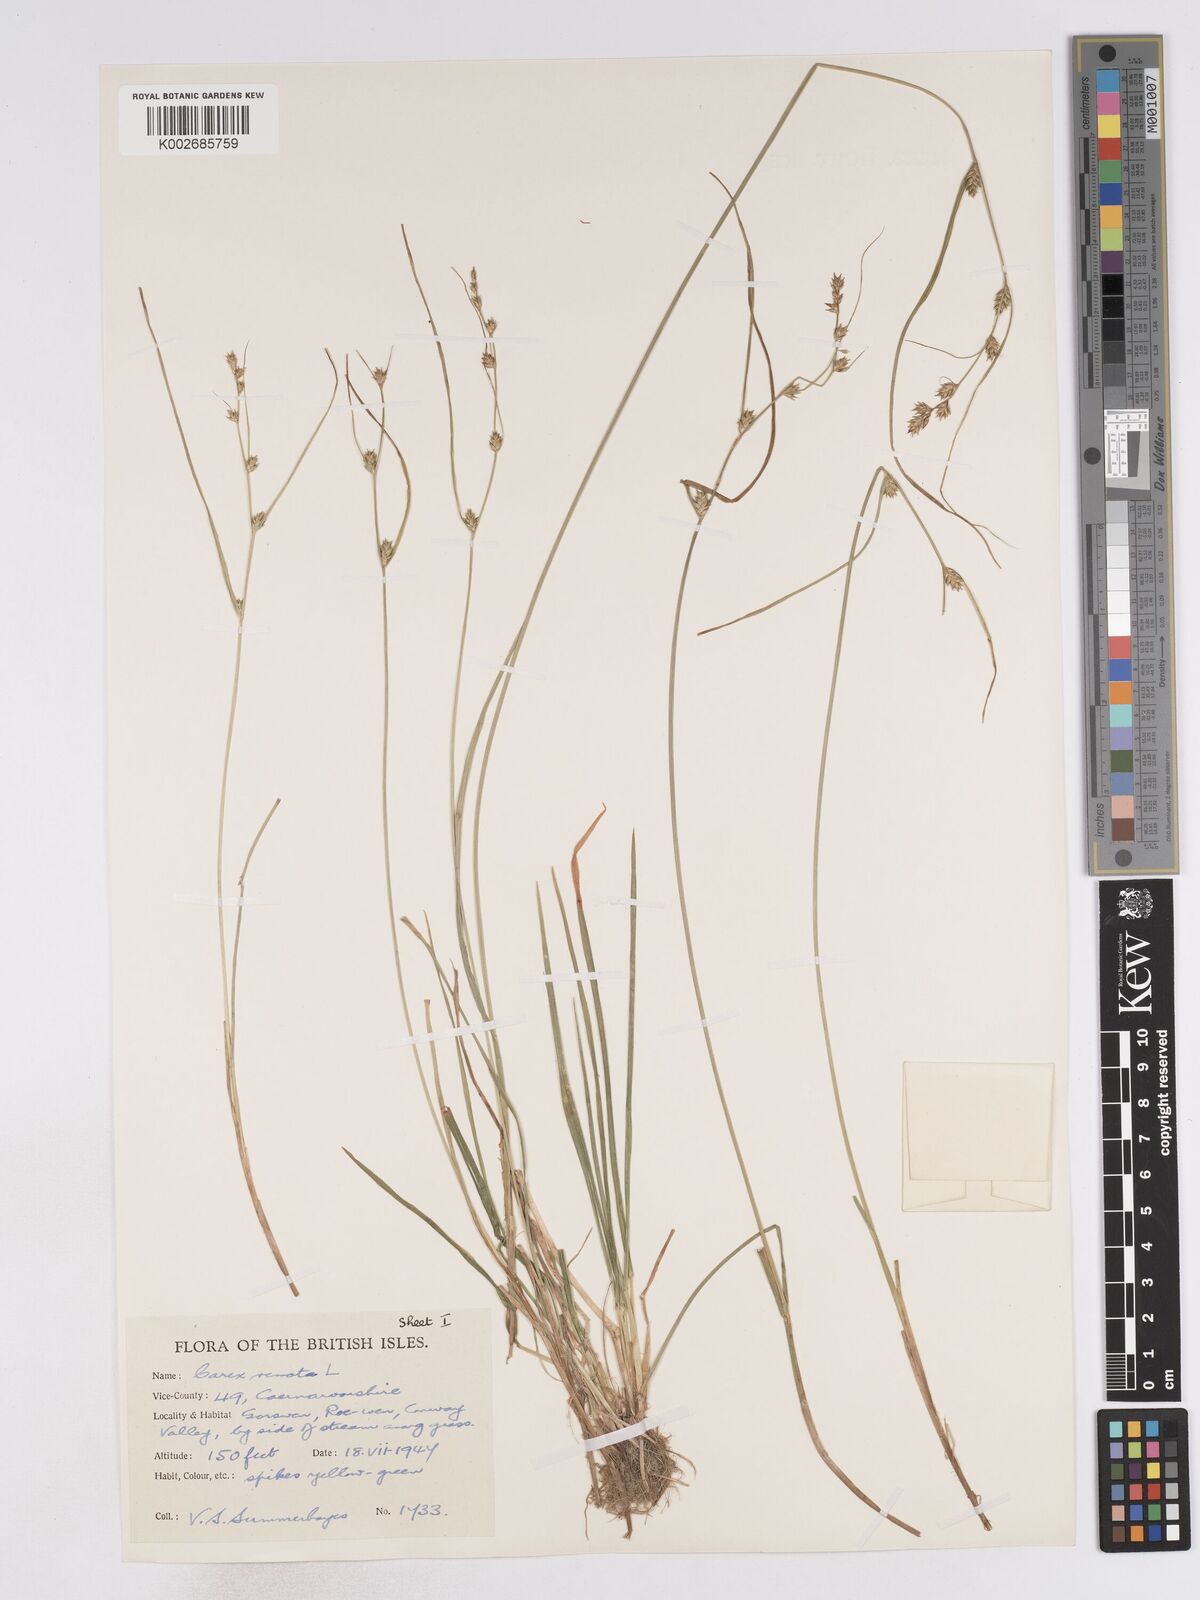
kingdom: Plantae
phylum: Tracheophyta
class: Liliopsida
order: Poales
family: Cyperaceae
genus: Carex
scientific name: Carex remota
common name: Remote sedge
